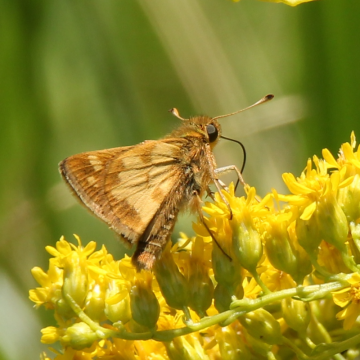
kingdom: Animalia
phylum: Arthropoda
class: Insecta
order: Lepidoptera
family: Hesperiidae
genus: Polites
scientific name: Polites coras
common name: Peck's Skipper
